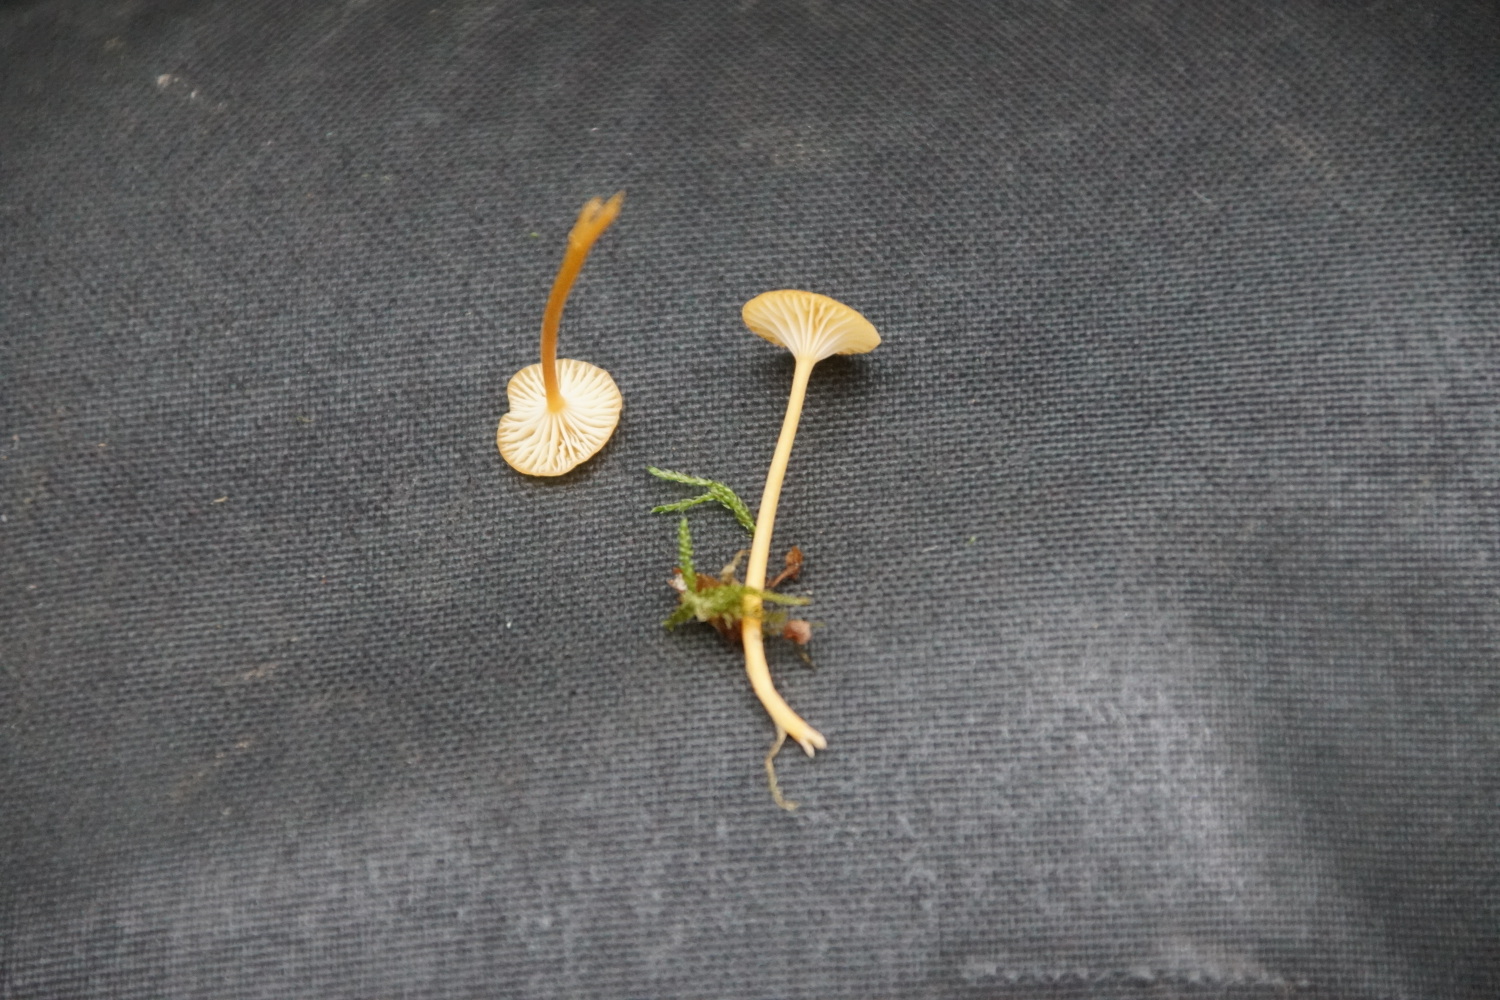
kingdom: Fungi
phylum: Basidiomycota
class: Agaricomycetes
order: Hymenochaetales
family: Rickenellaceae
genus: Rickenella
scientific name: Rickenella fibula
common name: orange mosnavlehat
